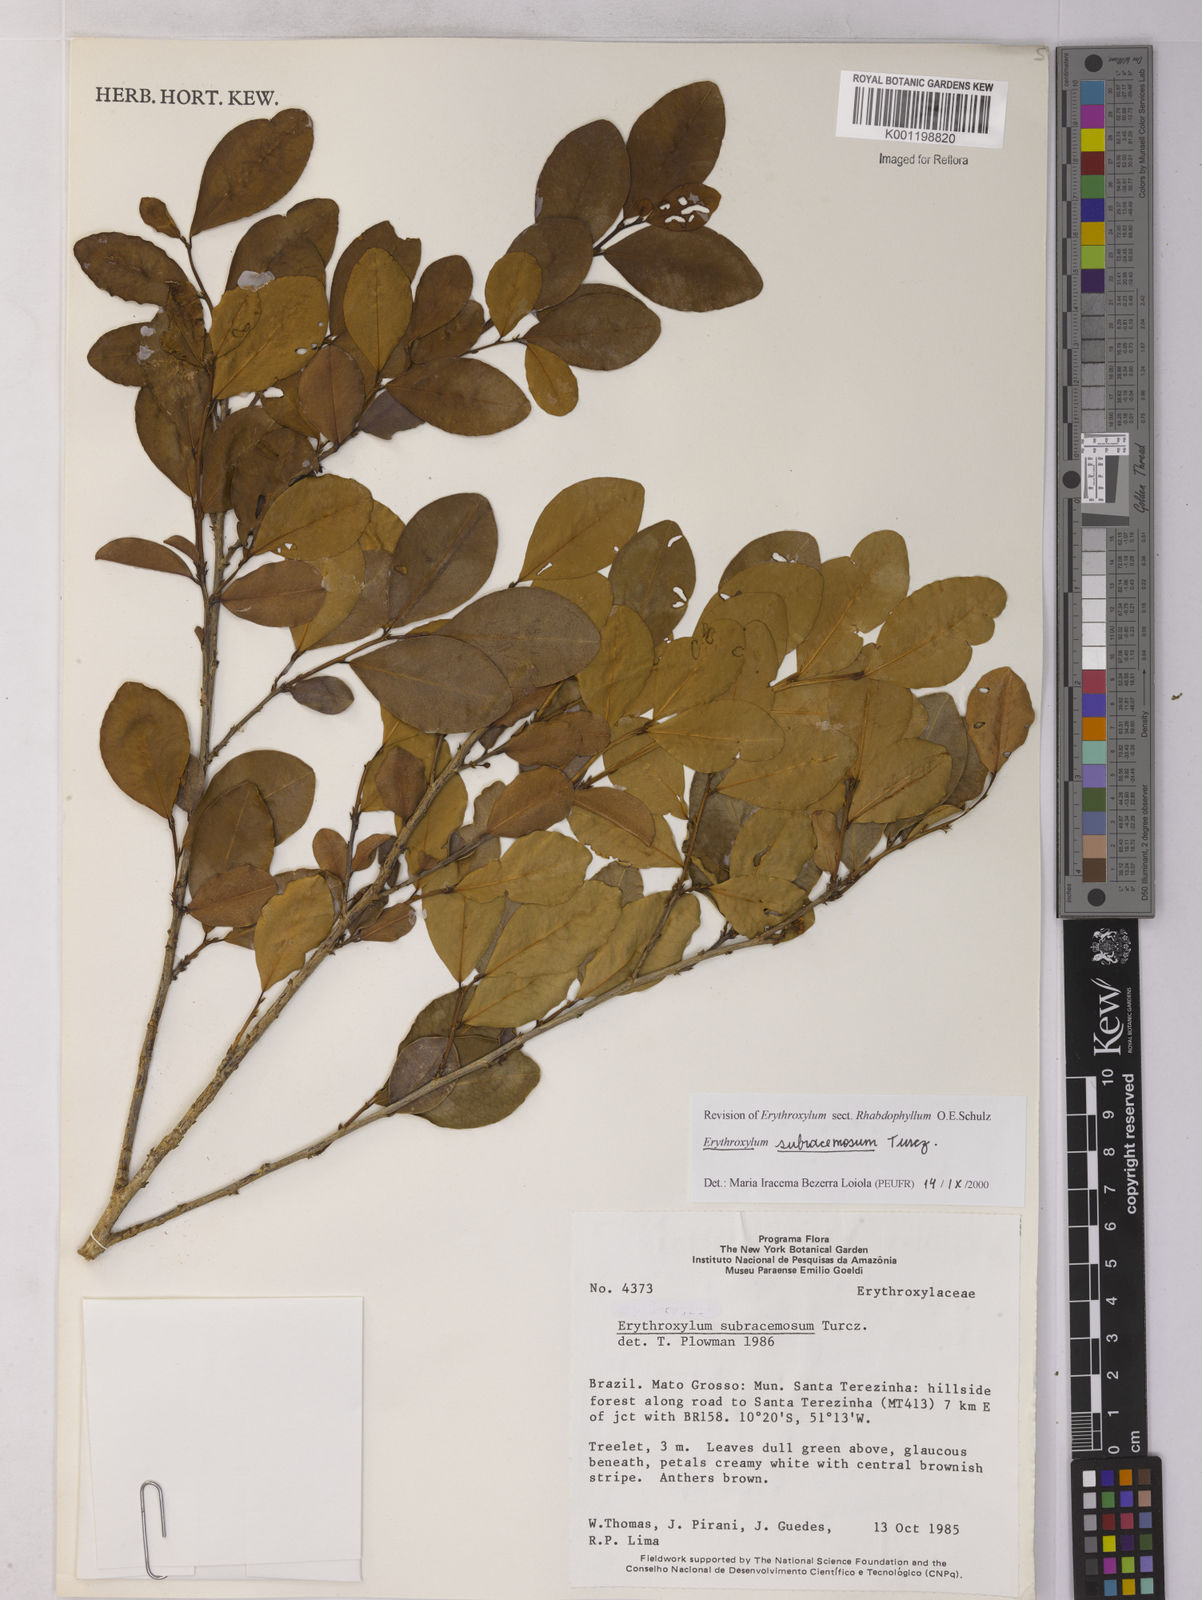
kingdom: Plantae
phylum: Tracheophyta
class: Magnoliopsida
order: Malpighiales
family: Erythroxylaceae
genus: Erythroxylum
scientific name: Erythroxylum subracemosum
